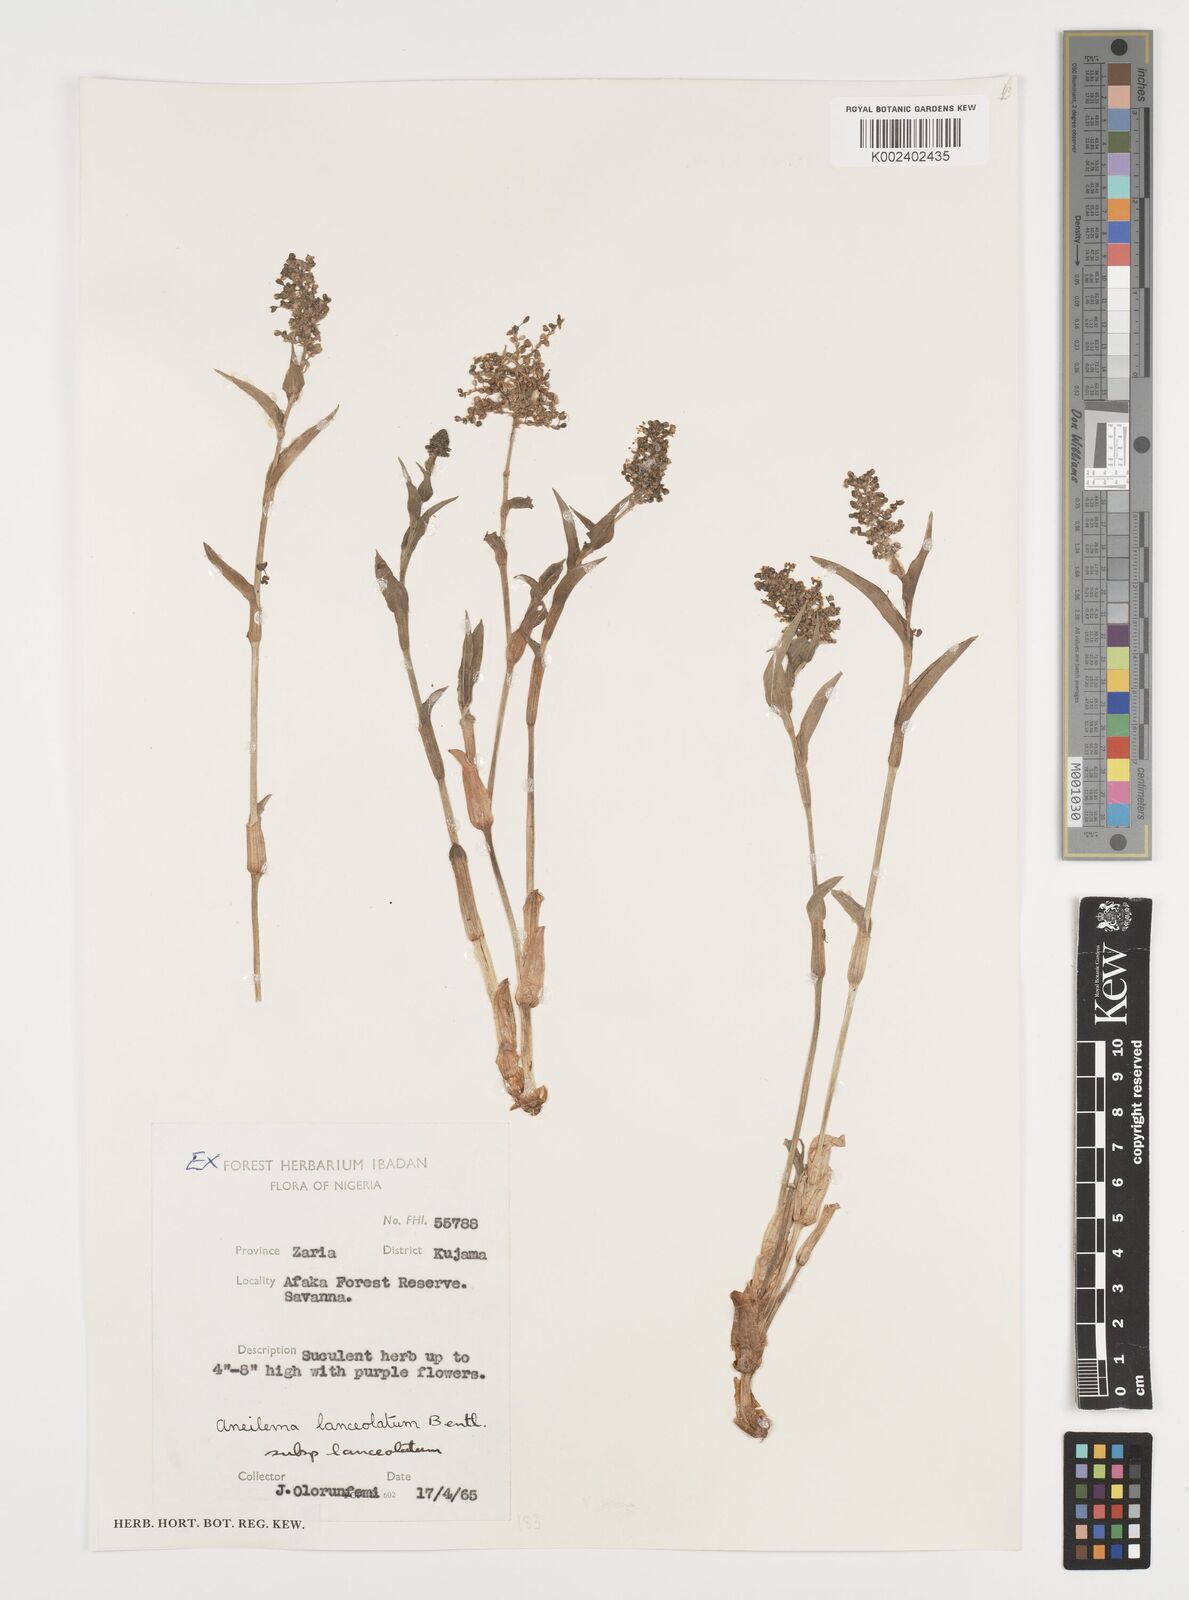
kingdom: Plantae
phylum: Tracheophyta
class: Liliopsida
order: Commelinales
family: Commelinaceae
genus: Aneilema
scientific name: Aneilema lanceolatum
